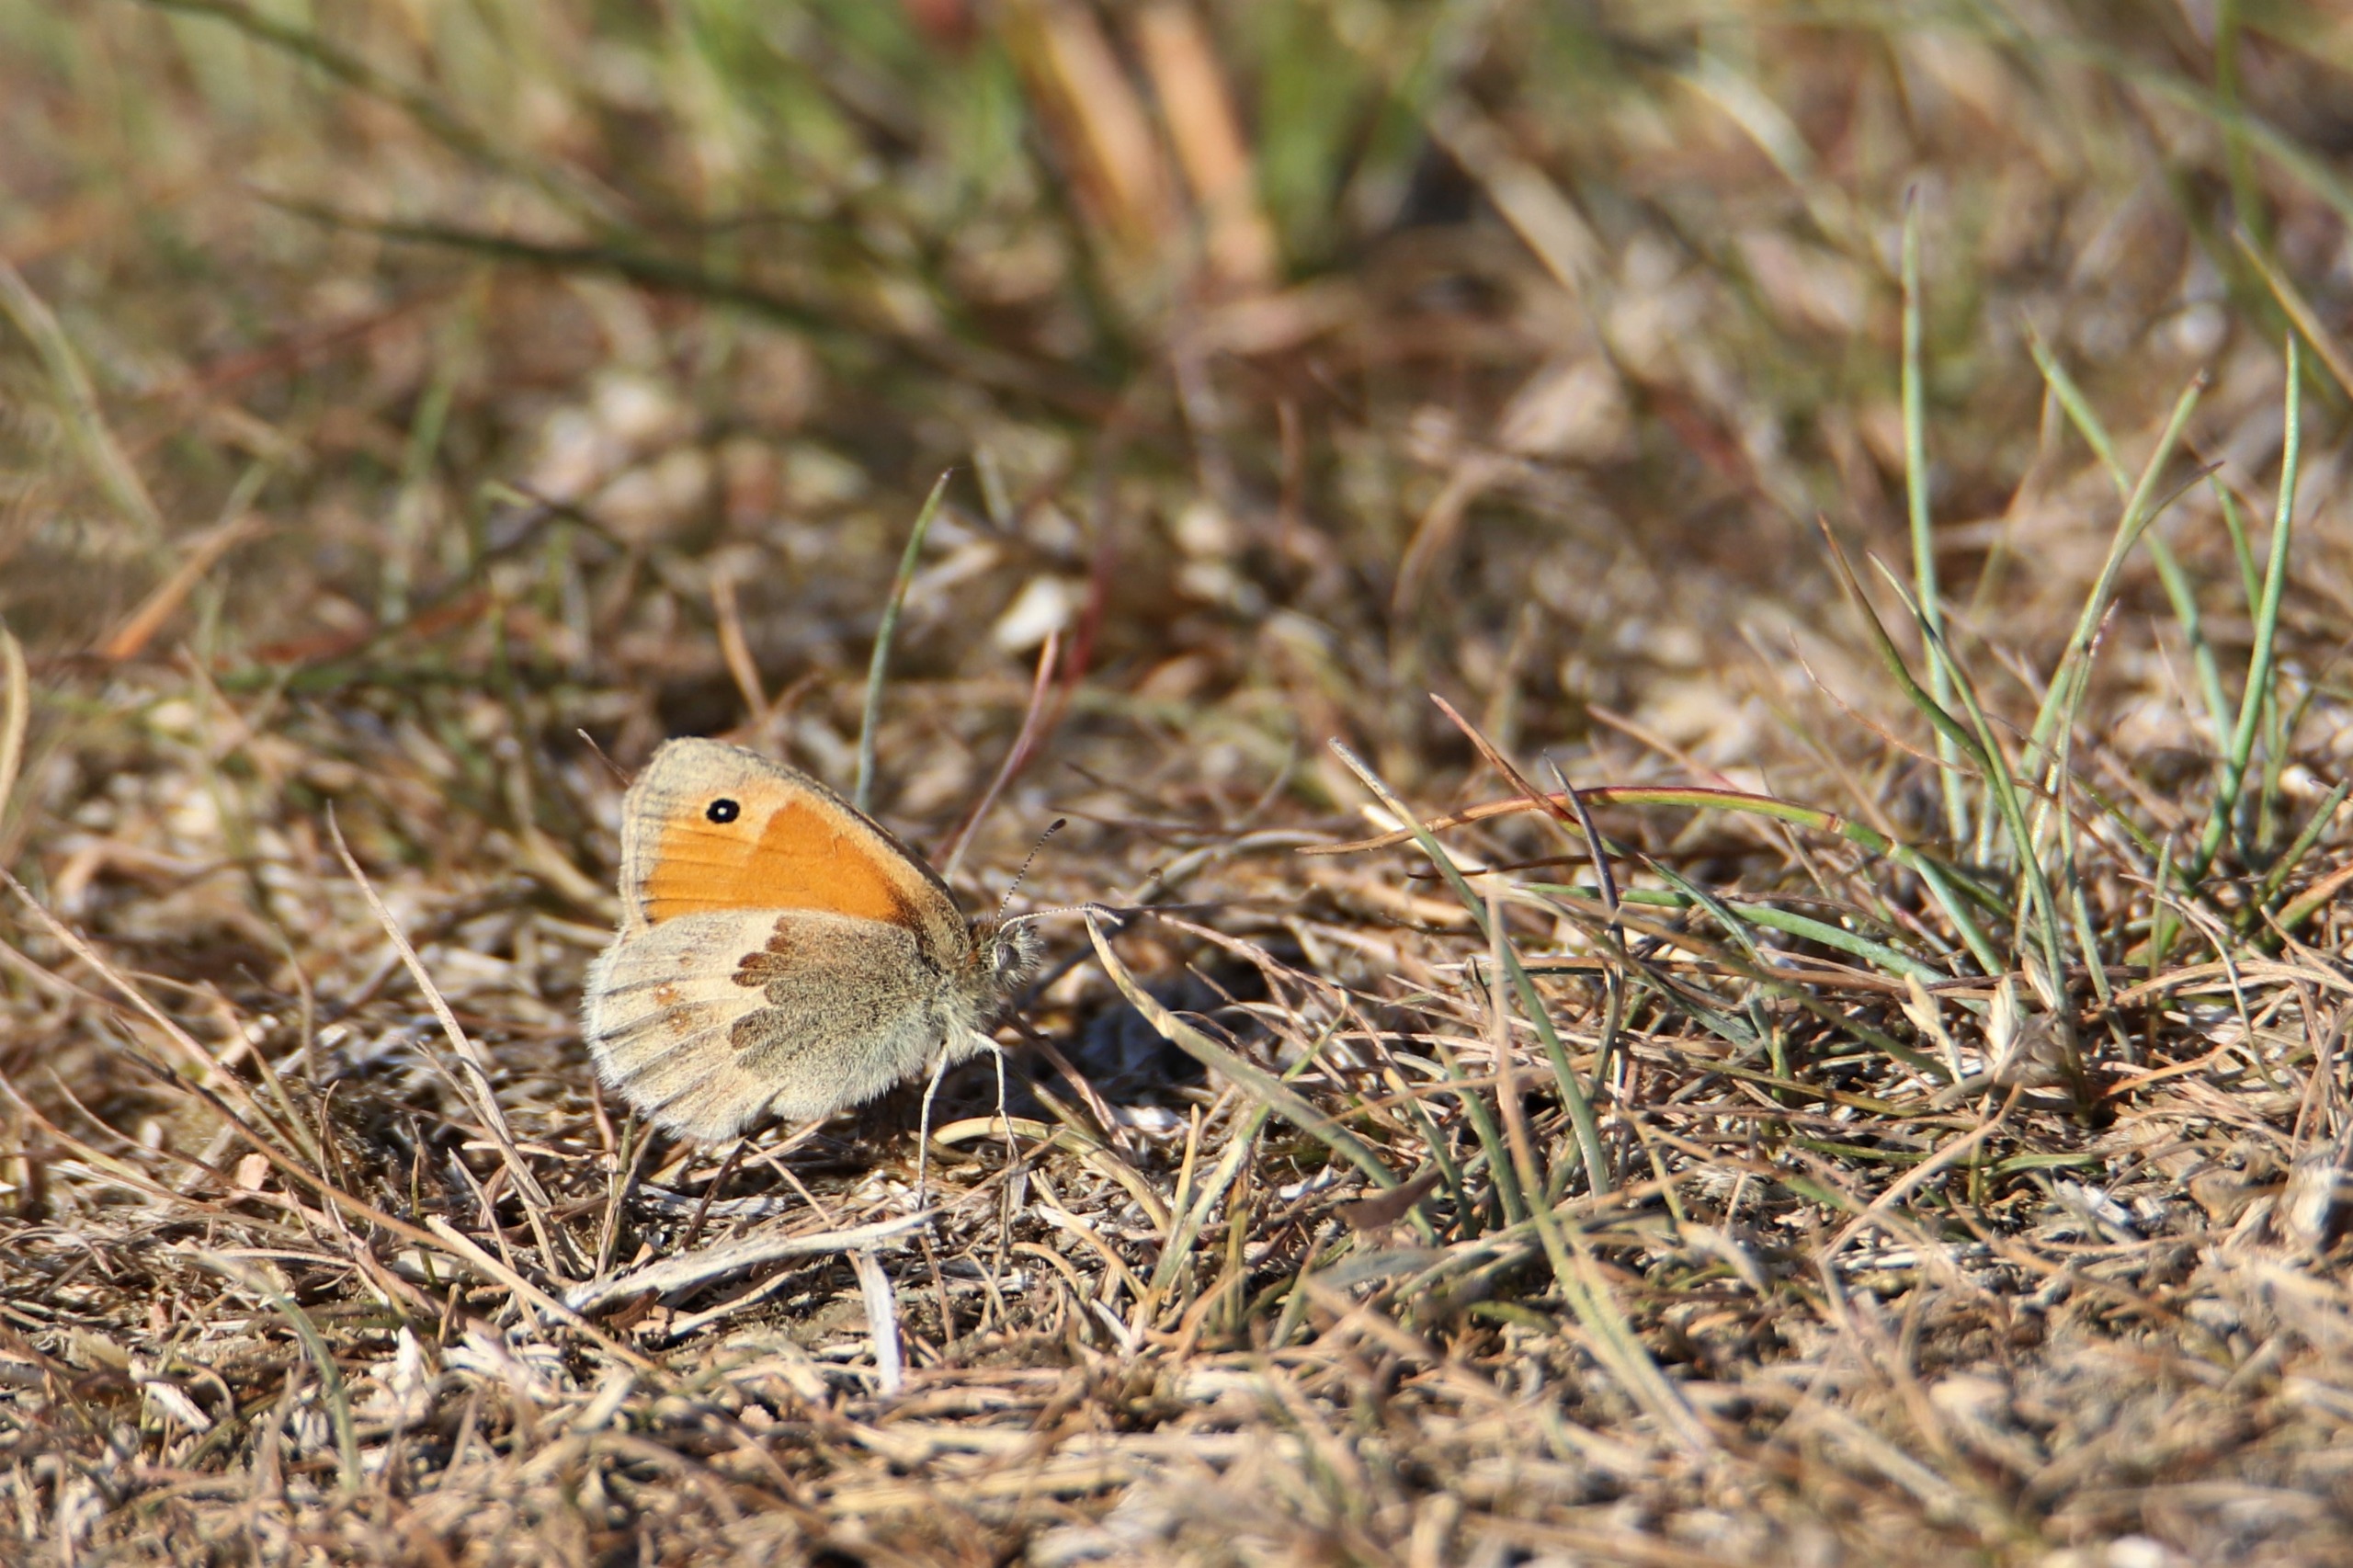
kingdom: Animalia
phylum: Arthropoda
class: Insecta
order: Lepidoptera
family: Nymphalidae
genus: Coenonympha
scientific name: Coenonympha pamphilus
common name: Okkergul randøje
